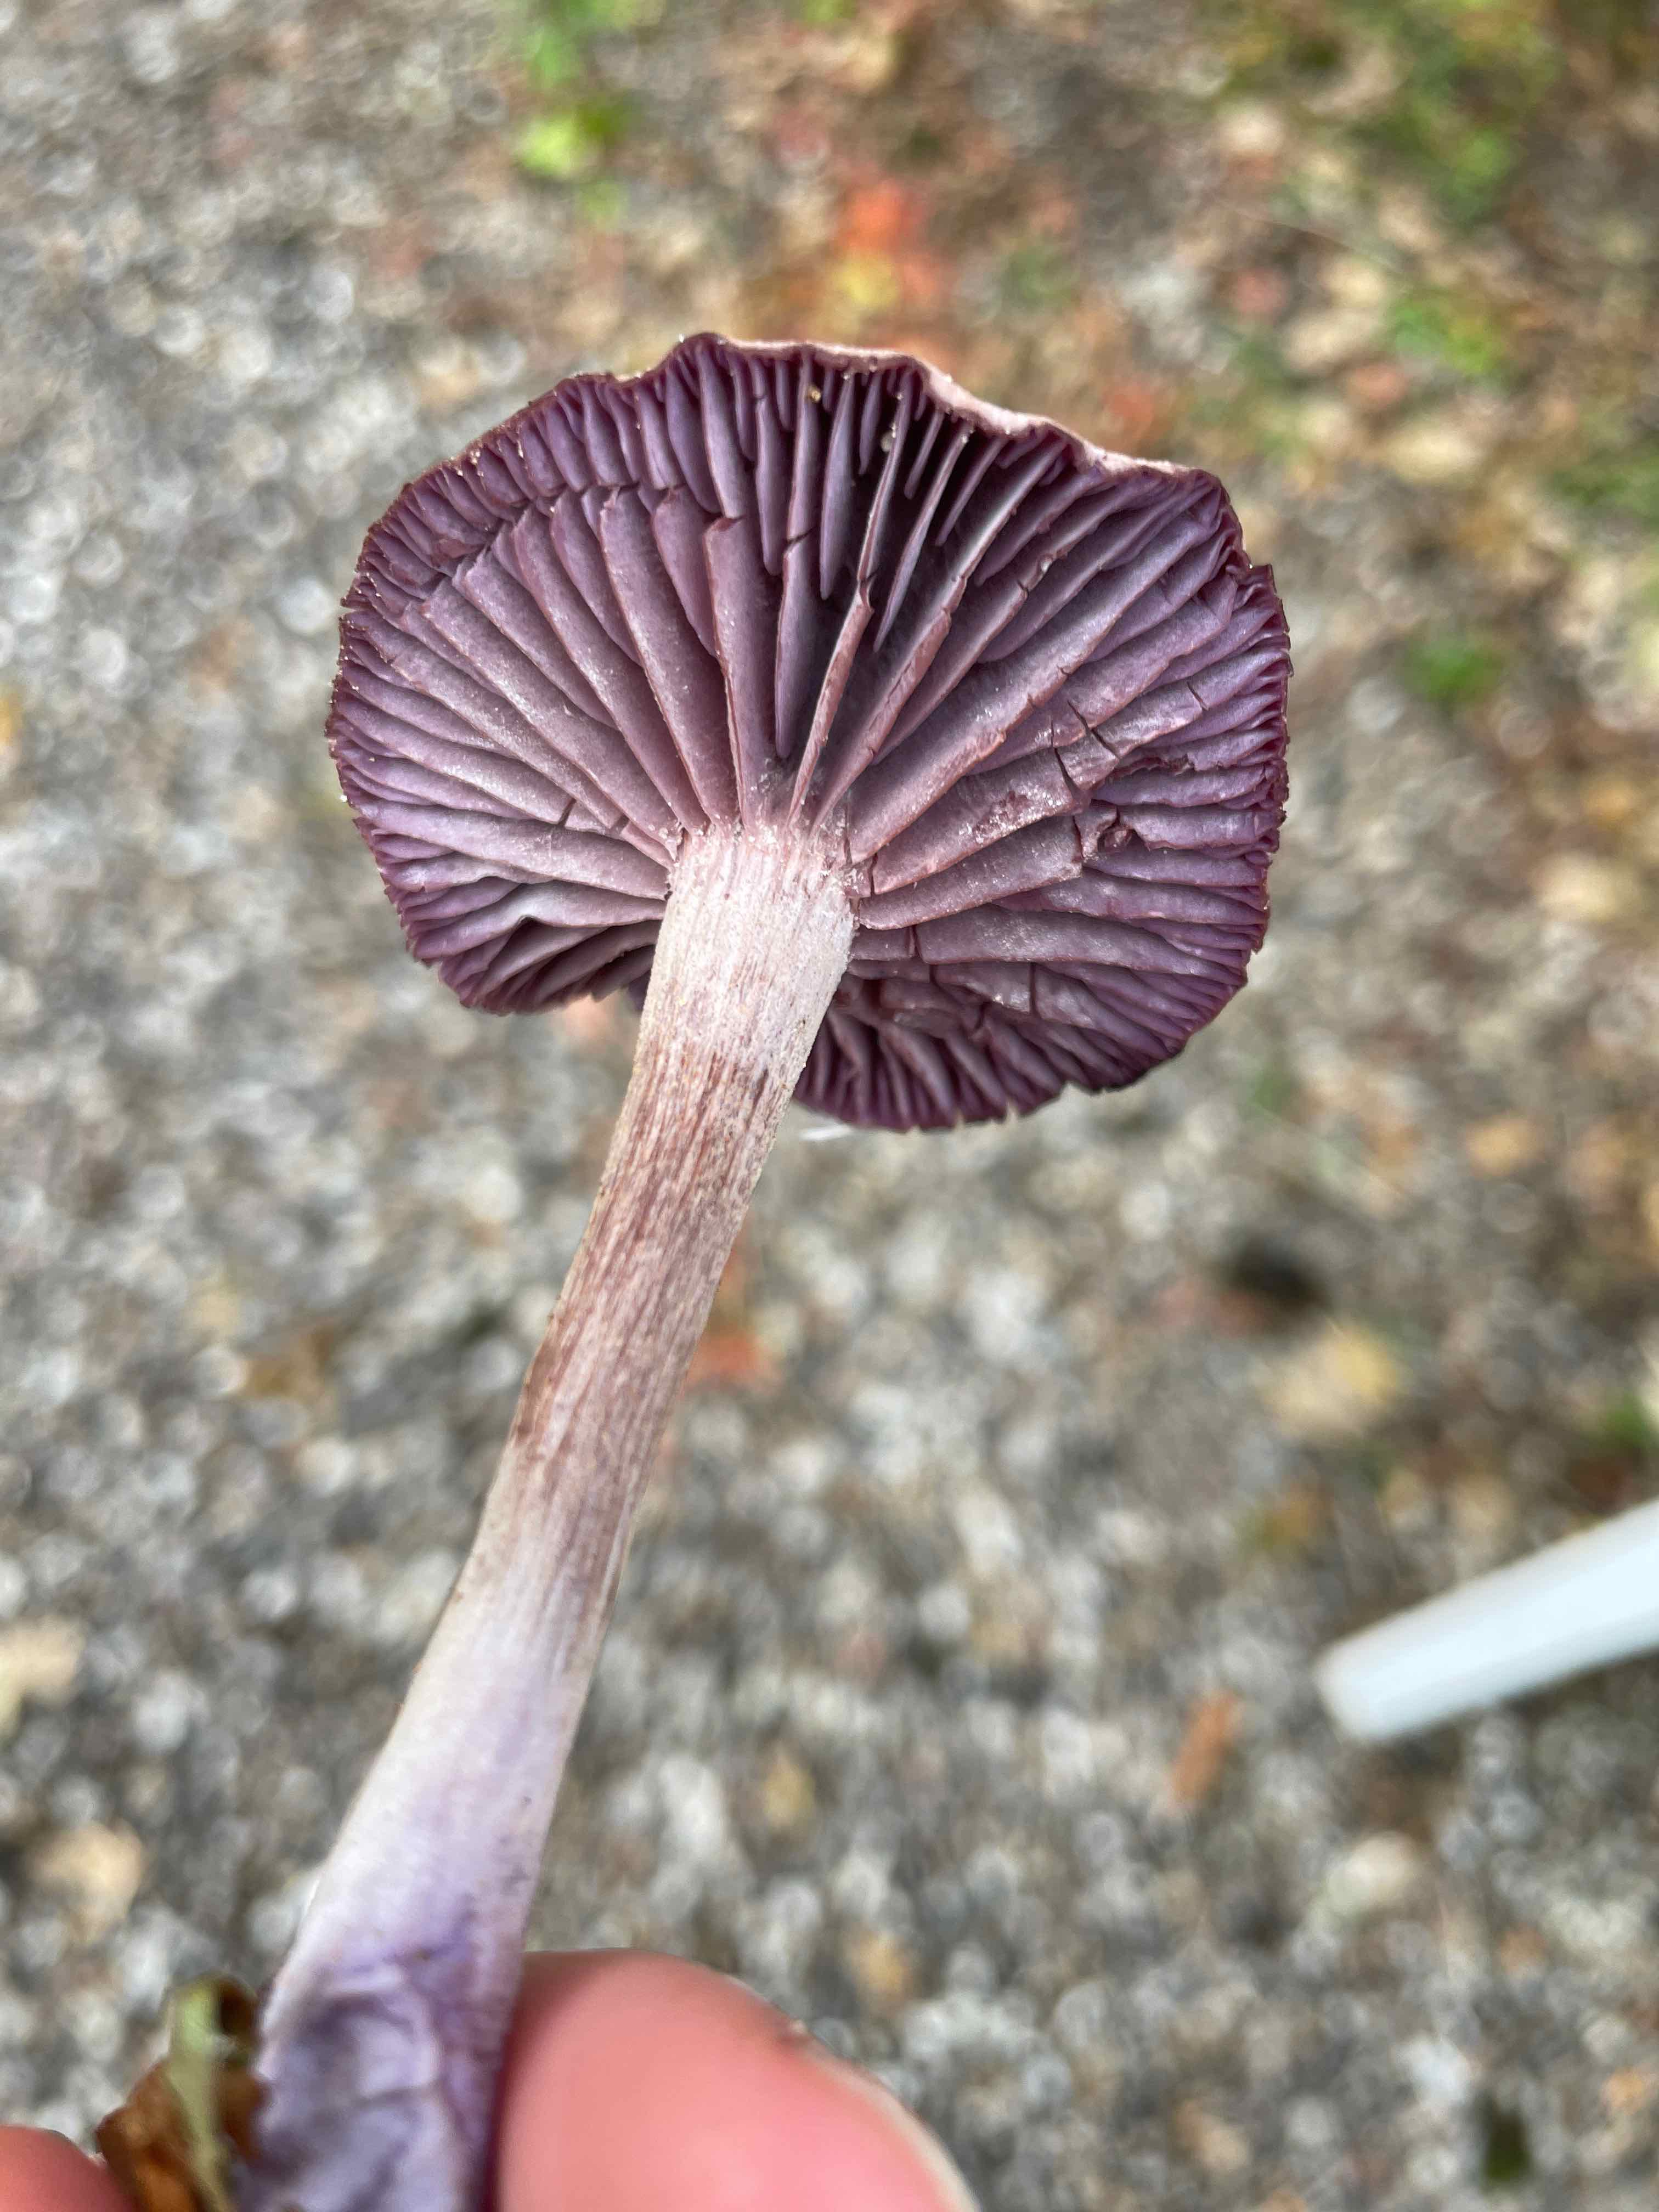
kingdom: Fungi
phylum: Basidiomycota
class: Agaricomycetes
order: Agaricales
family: Hydnangiaceae
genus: Laccaria
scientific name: Laccaria amethystina
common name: violet ametysthat
